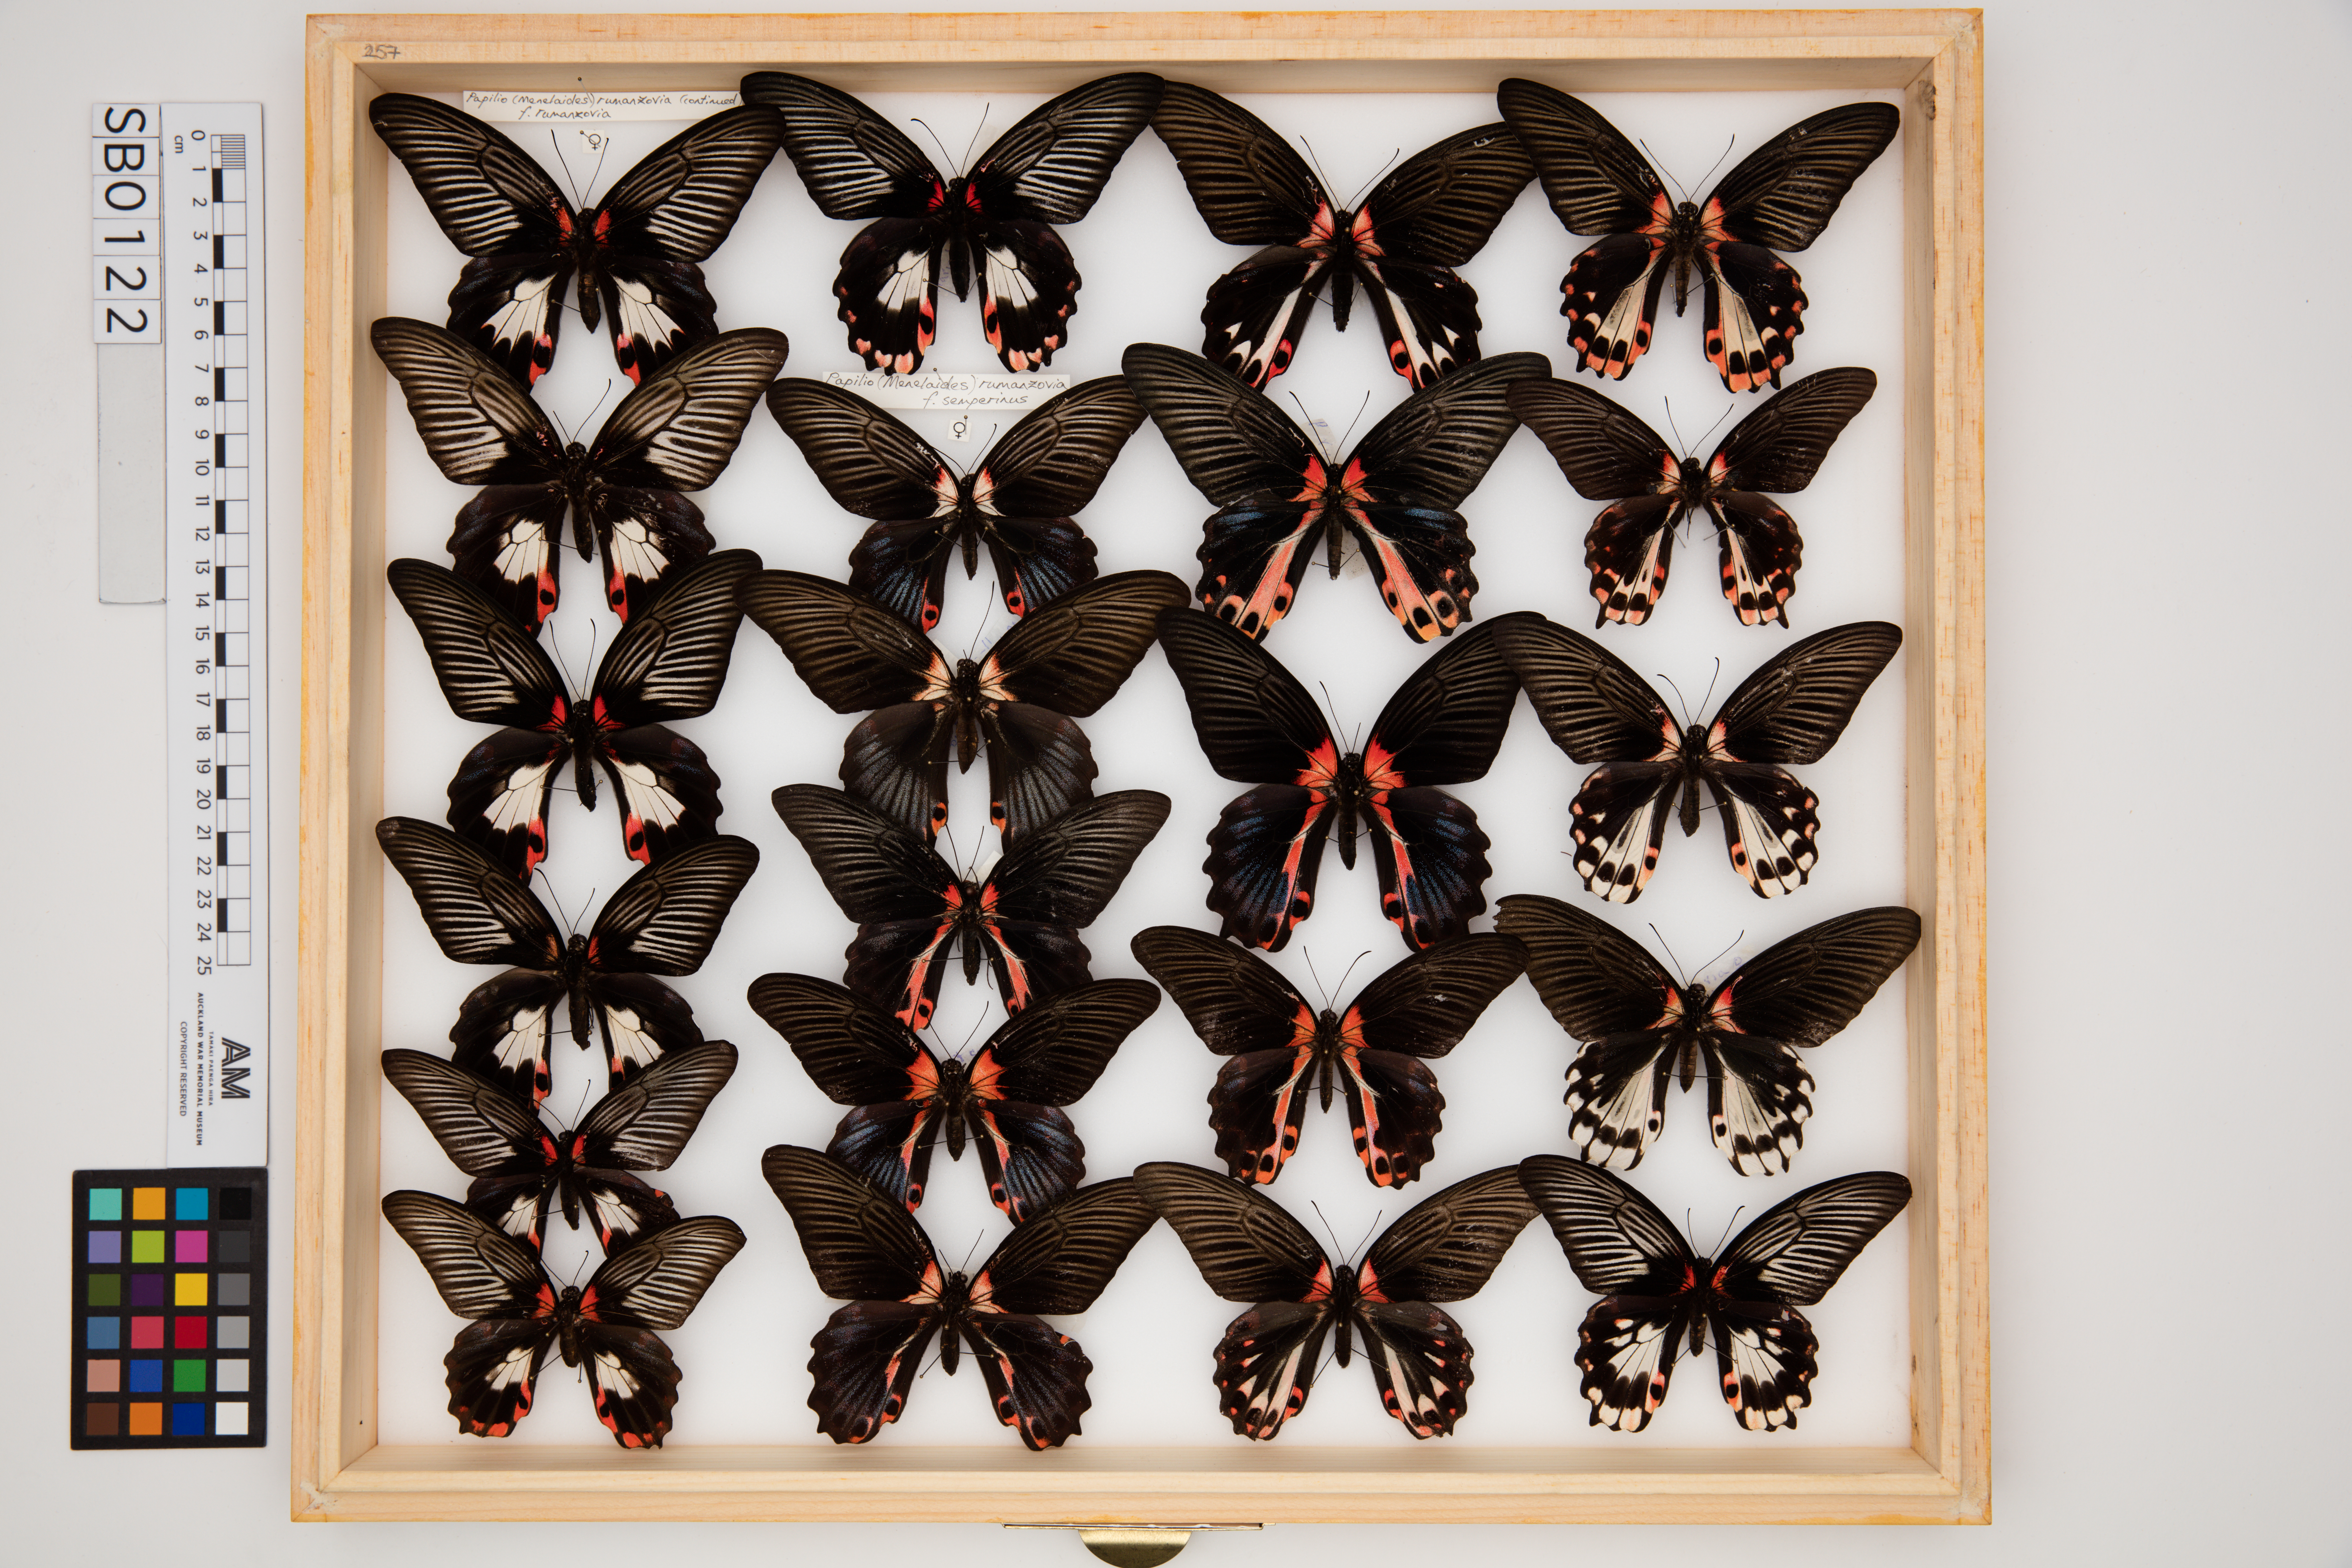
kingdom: Animalia
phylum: Arthropoda
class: Insecta
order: Lepidoptera
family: Papilionidae
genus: Papilio
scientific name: Papilio rumanzovia
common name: Scarlet mormon swallowtail
